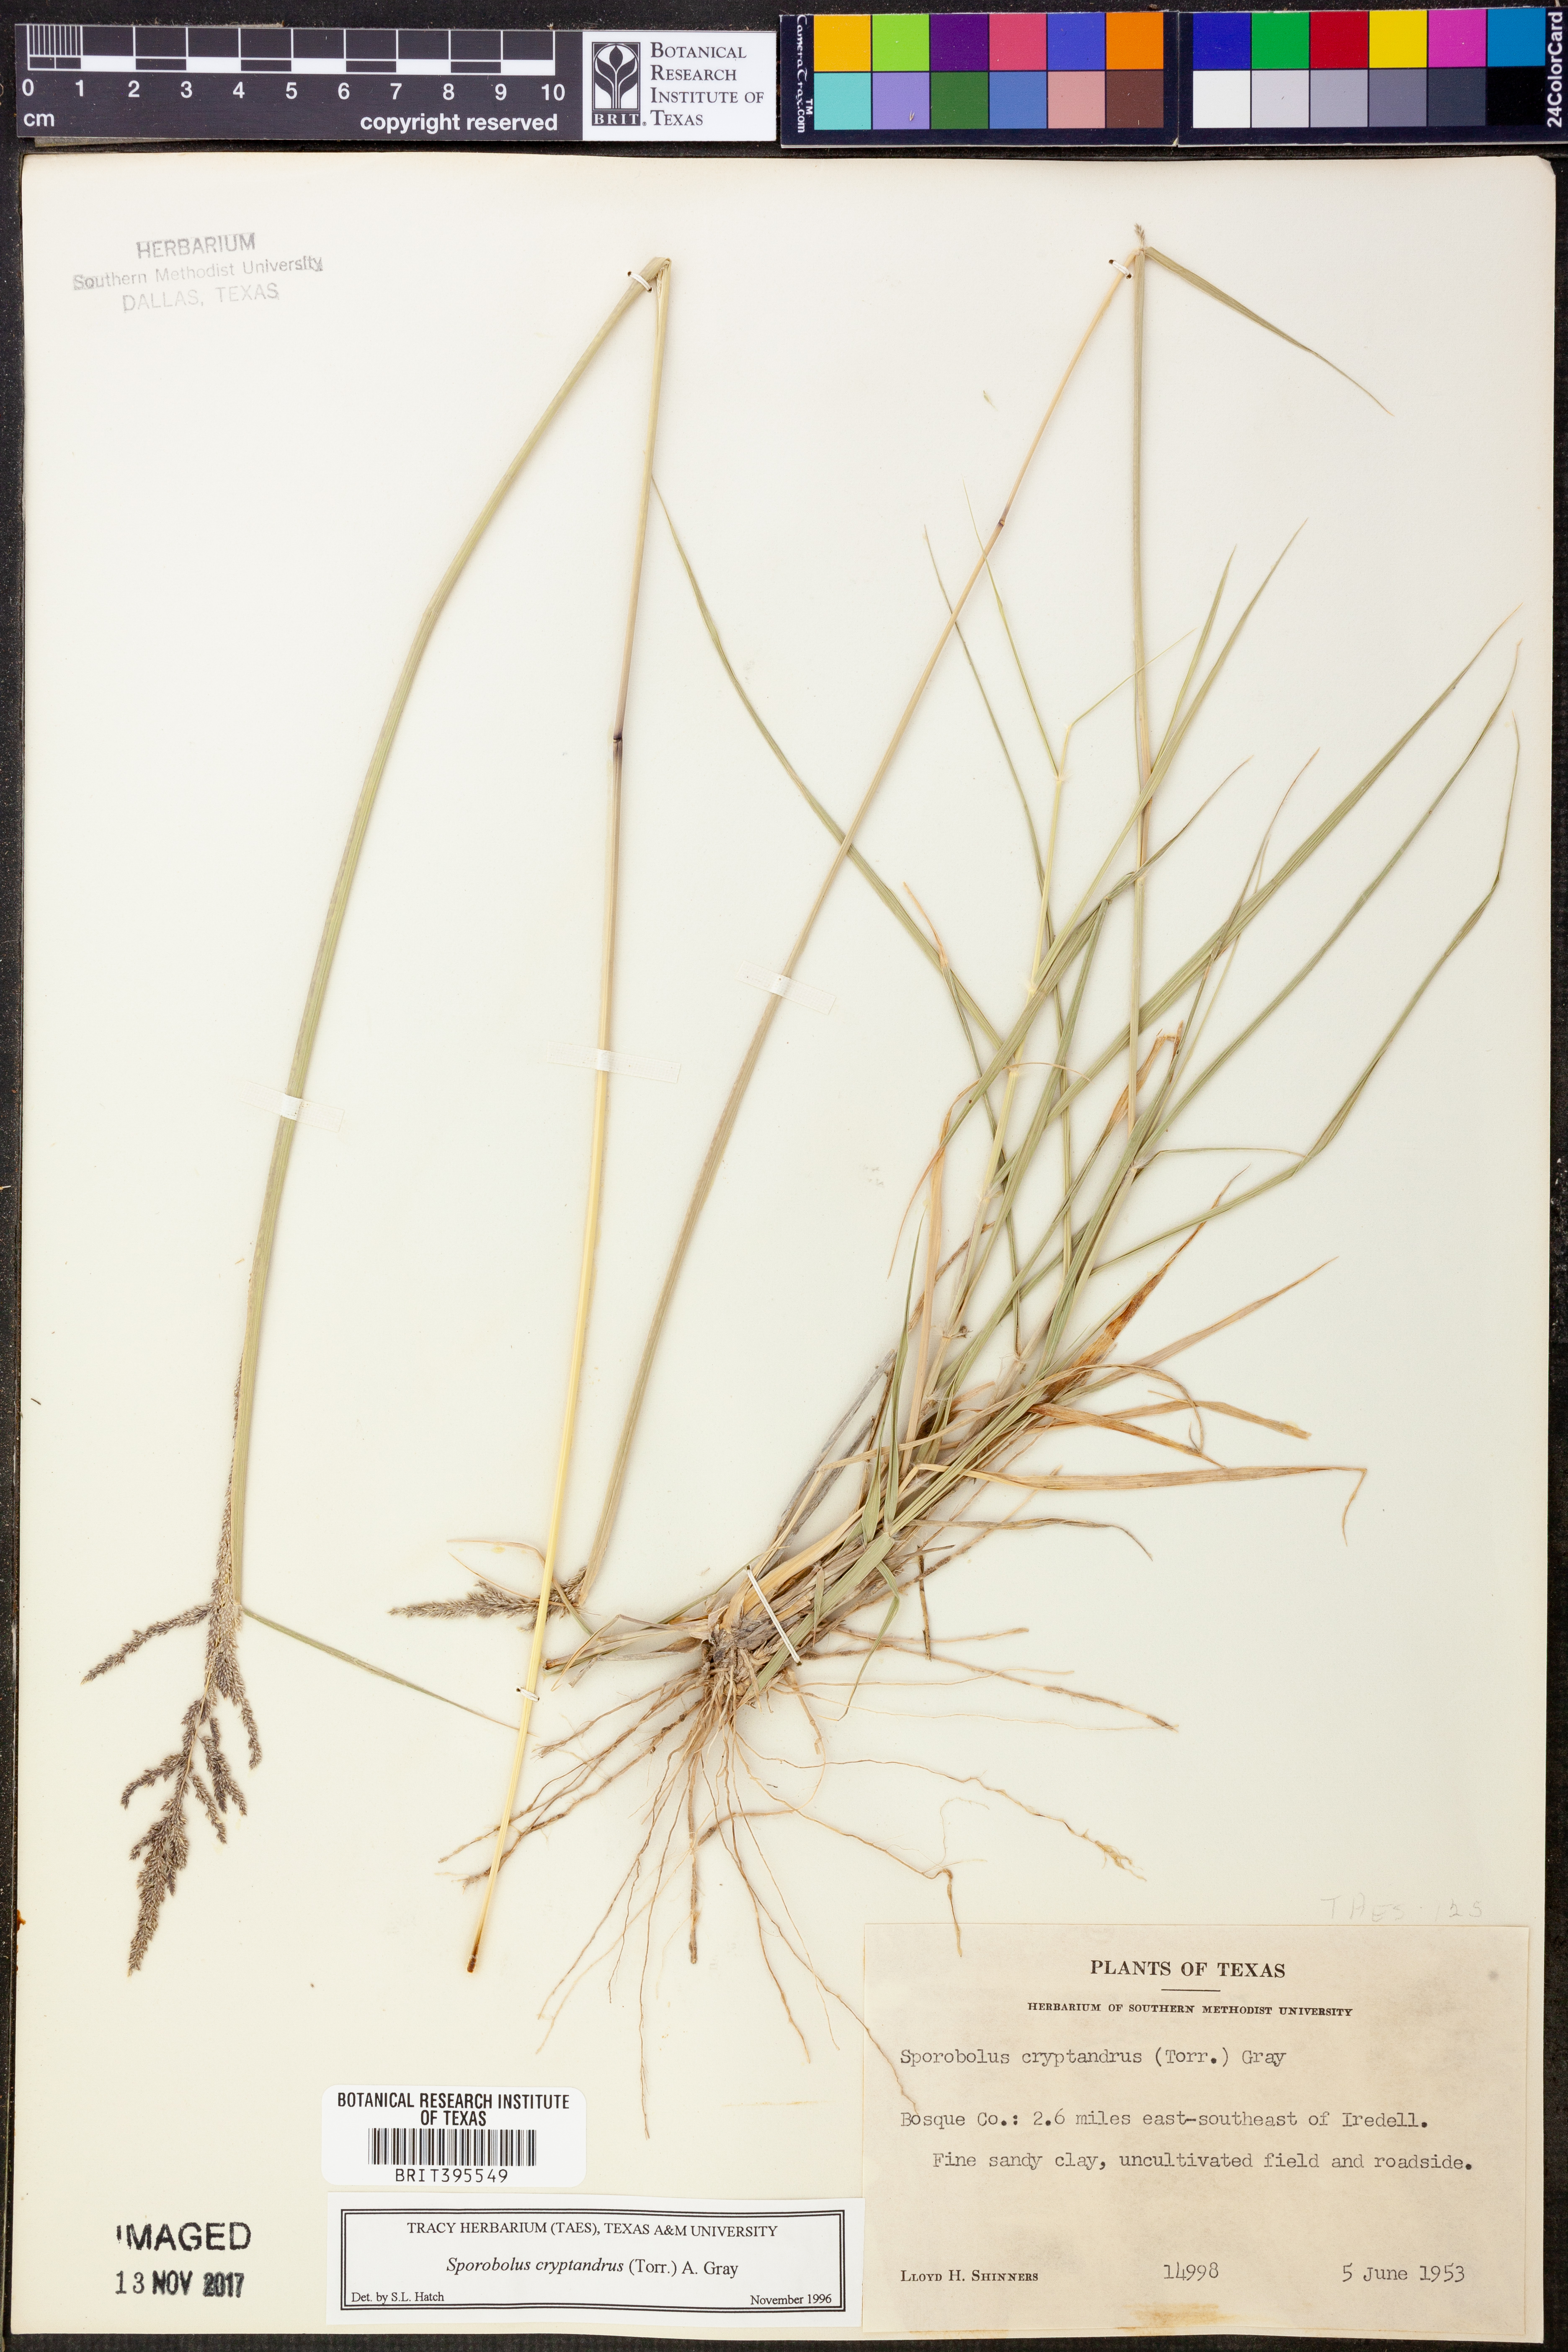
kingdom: Plantae
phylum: Tracheophyta
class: Liliopsida
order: Poales
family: Poaceae
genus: Sporobolus
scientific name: Sporobolus cryptandrus
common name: Sand dropseed
